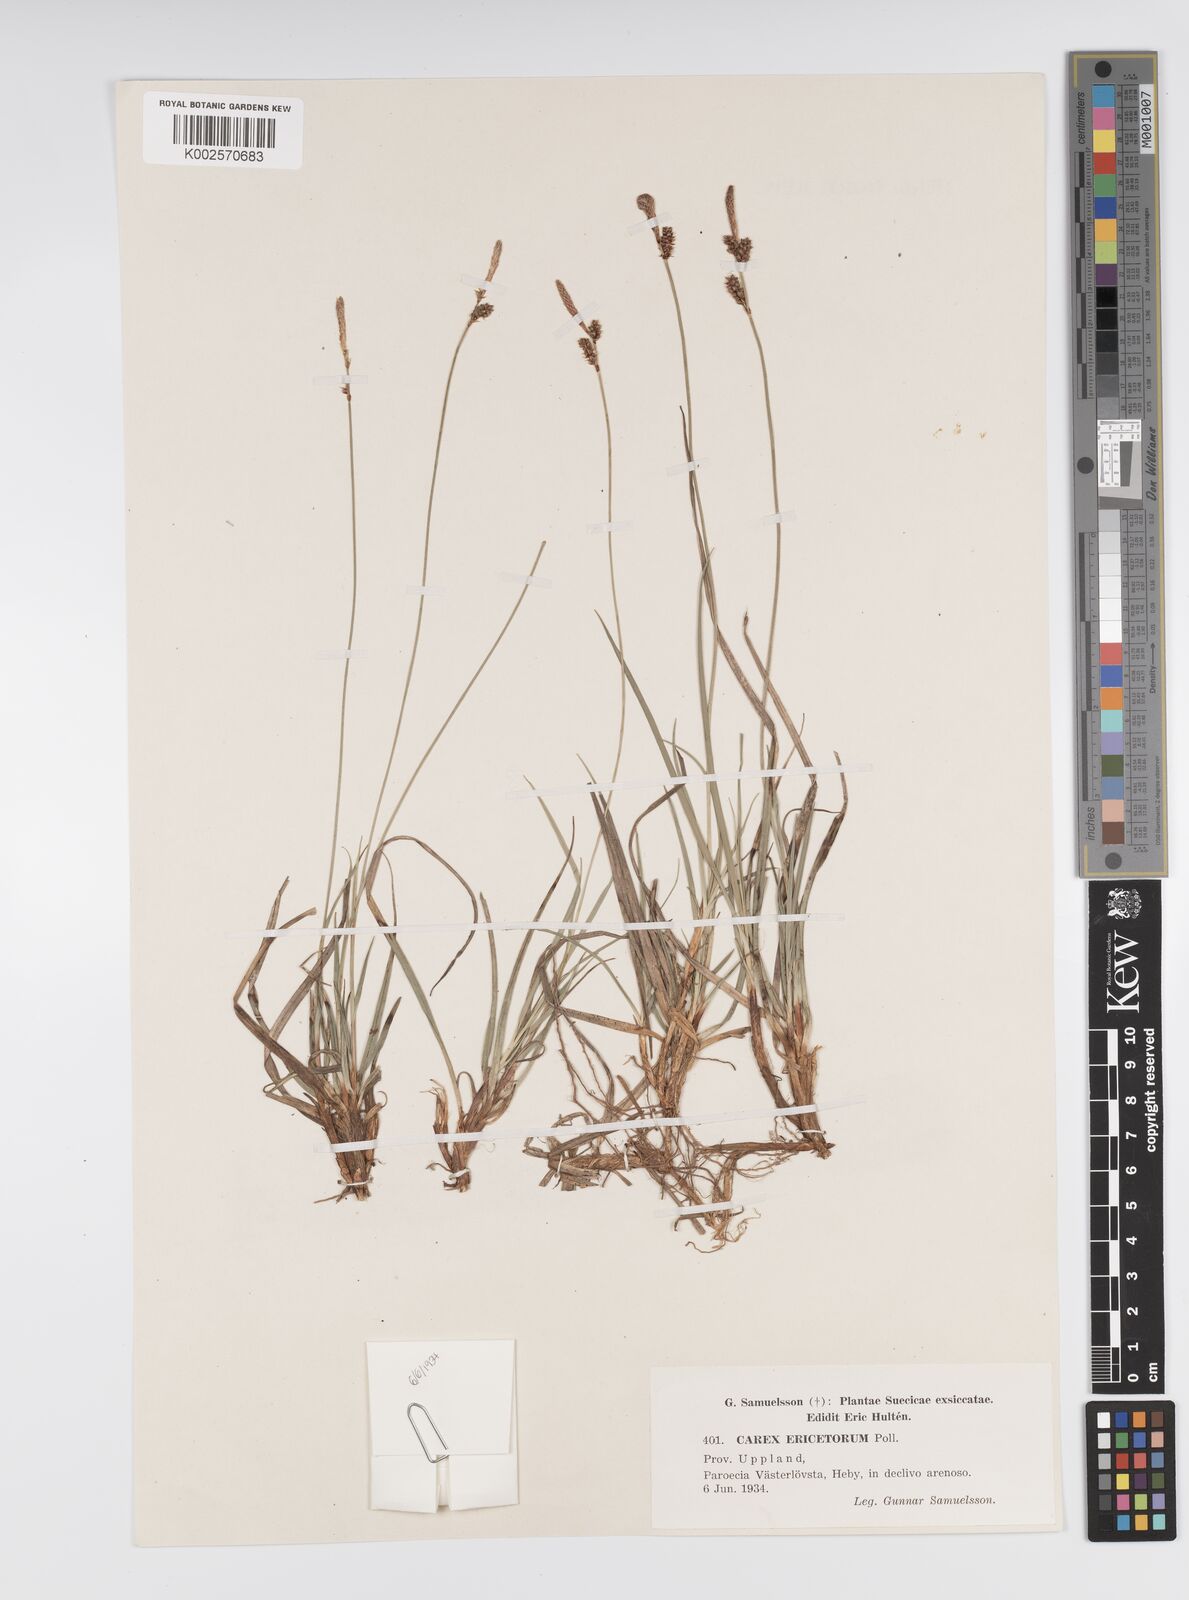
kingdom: Plantae
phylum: Tracheophyta
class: Liliopsida
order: Poales
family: Cyperaceae
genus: Carex
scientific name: Carex ericetorum
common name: Rare spring-sedge
